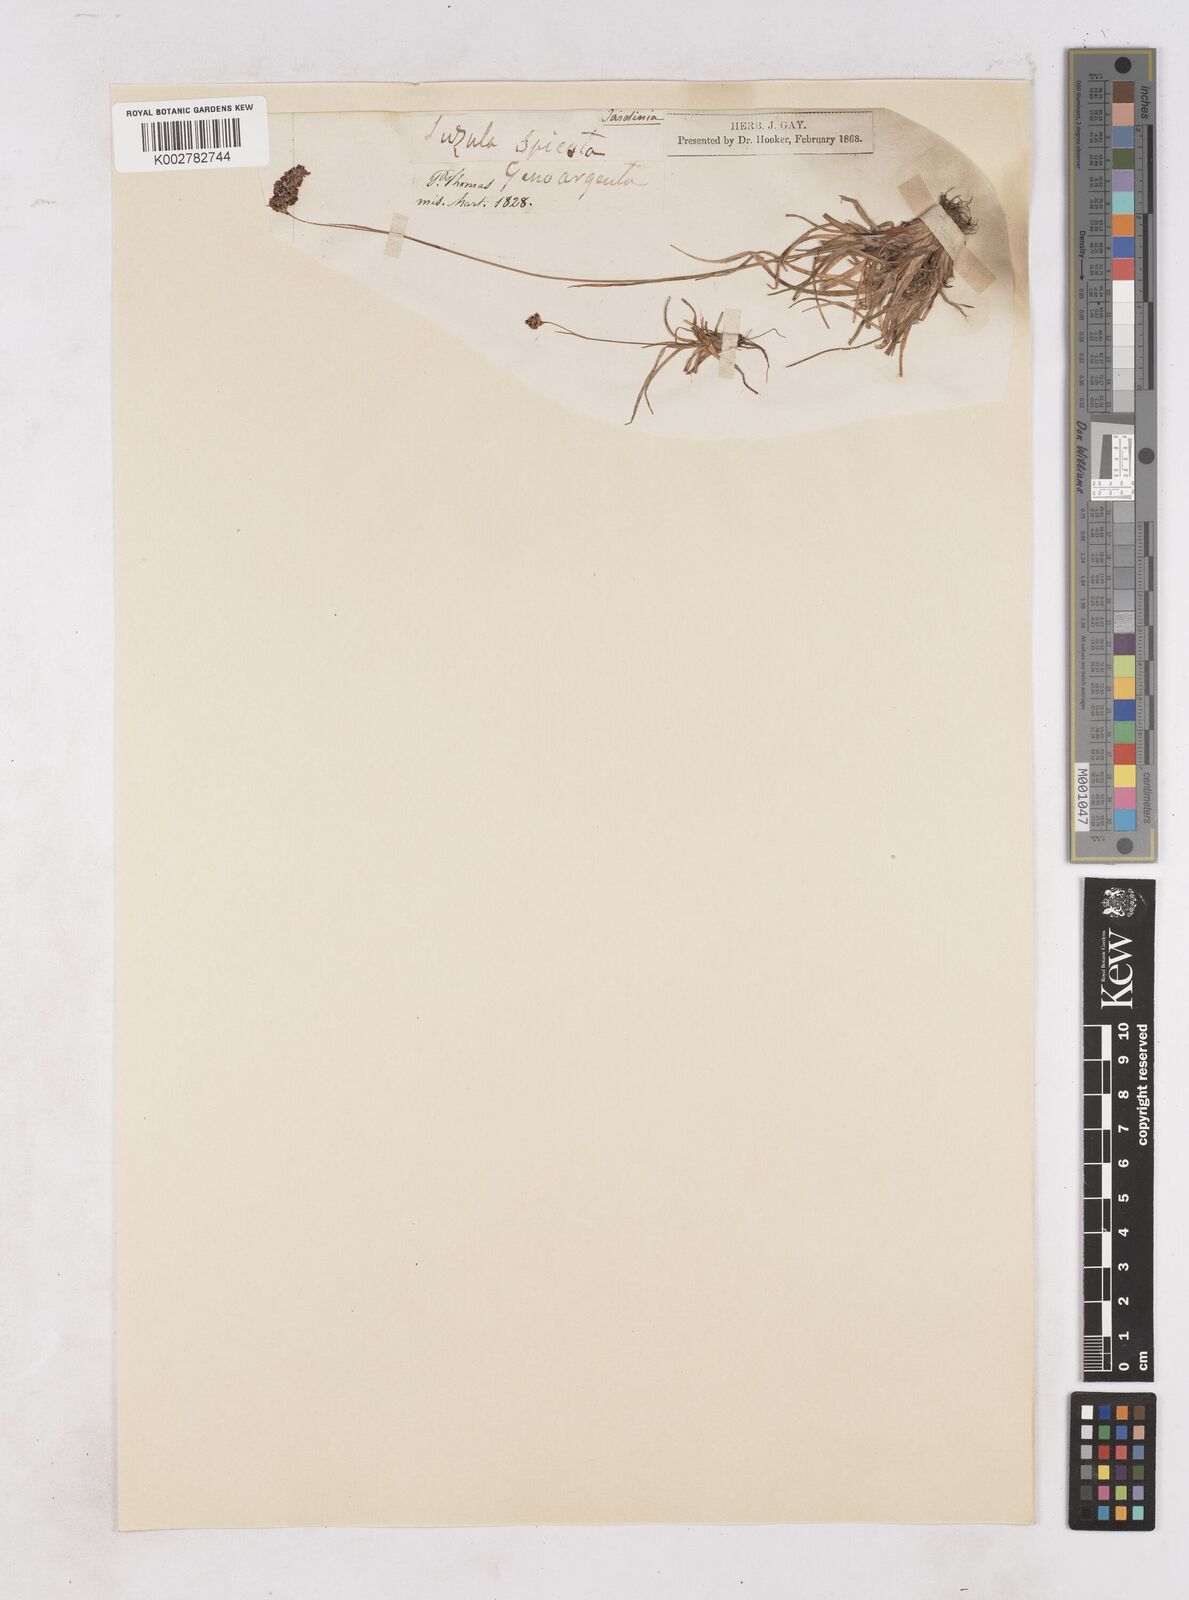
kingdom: Plantae
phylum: Tracheophyta
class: Liliopsida
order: Poales
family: Juncaceae
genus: Luzula
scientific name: Luzula spicata
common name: Spiked wood-rush
